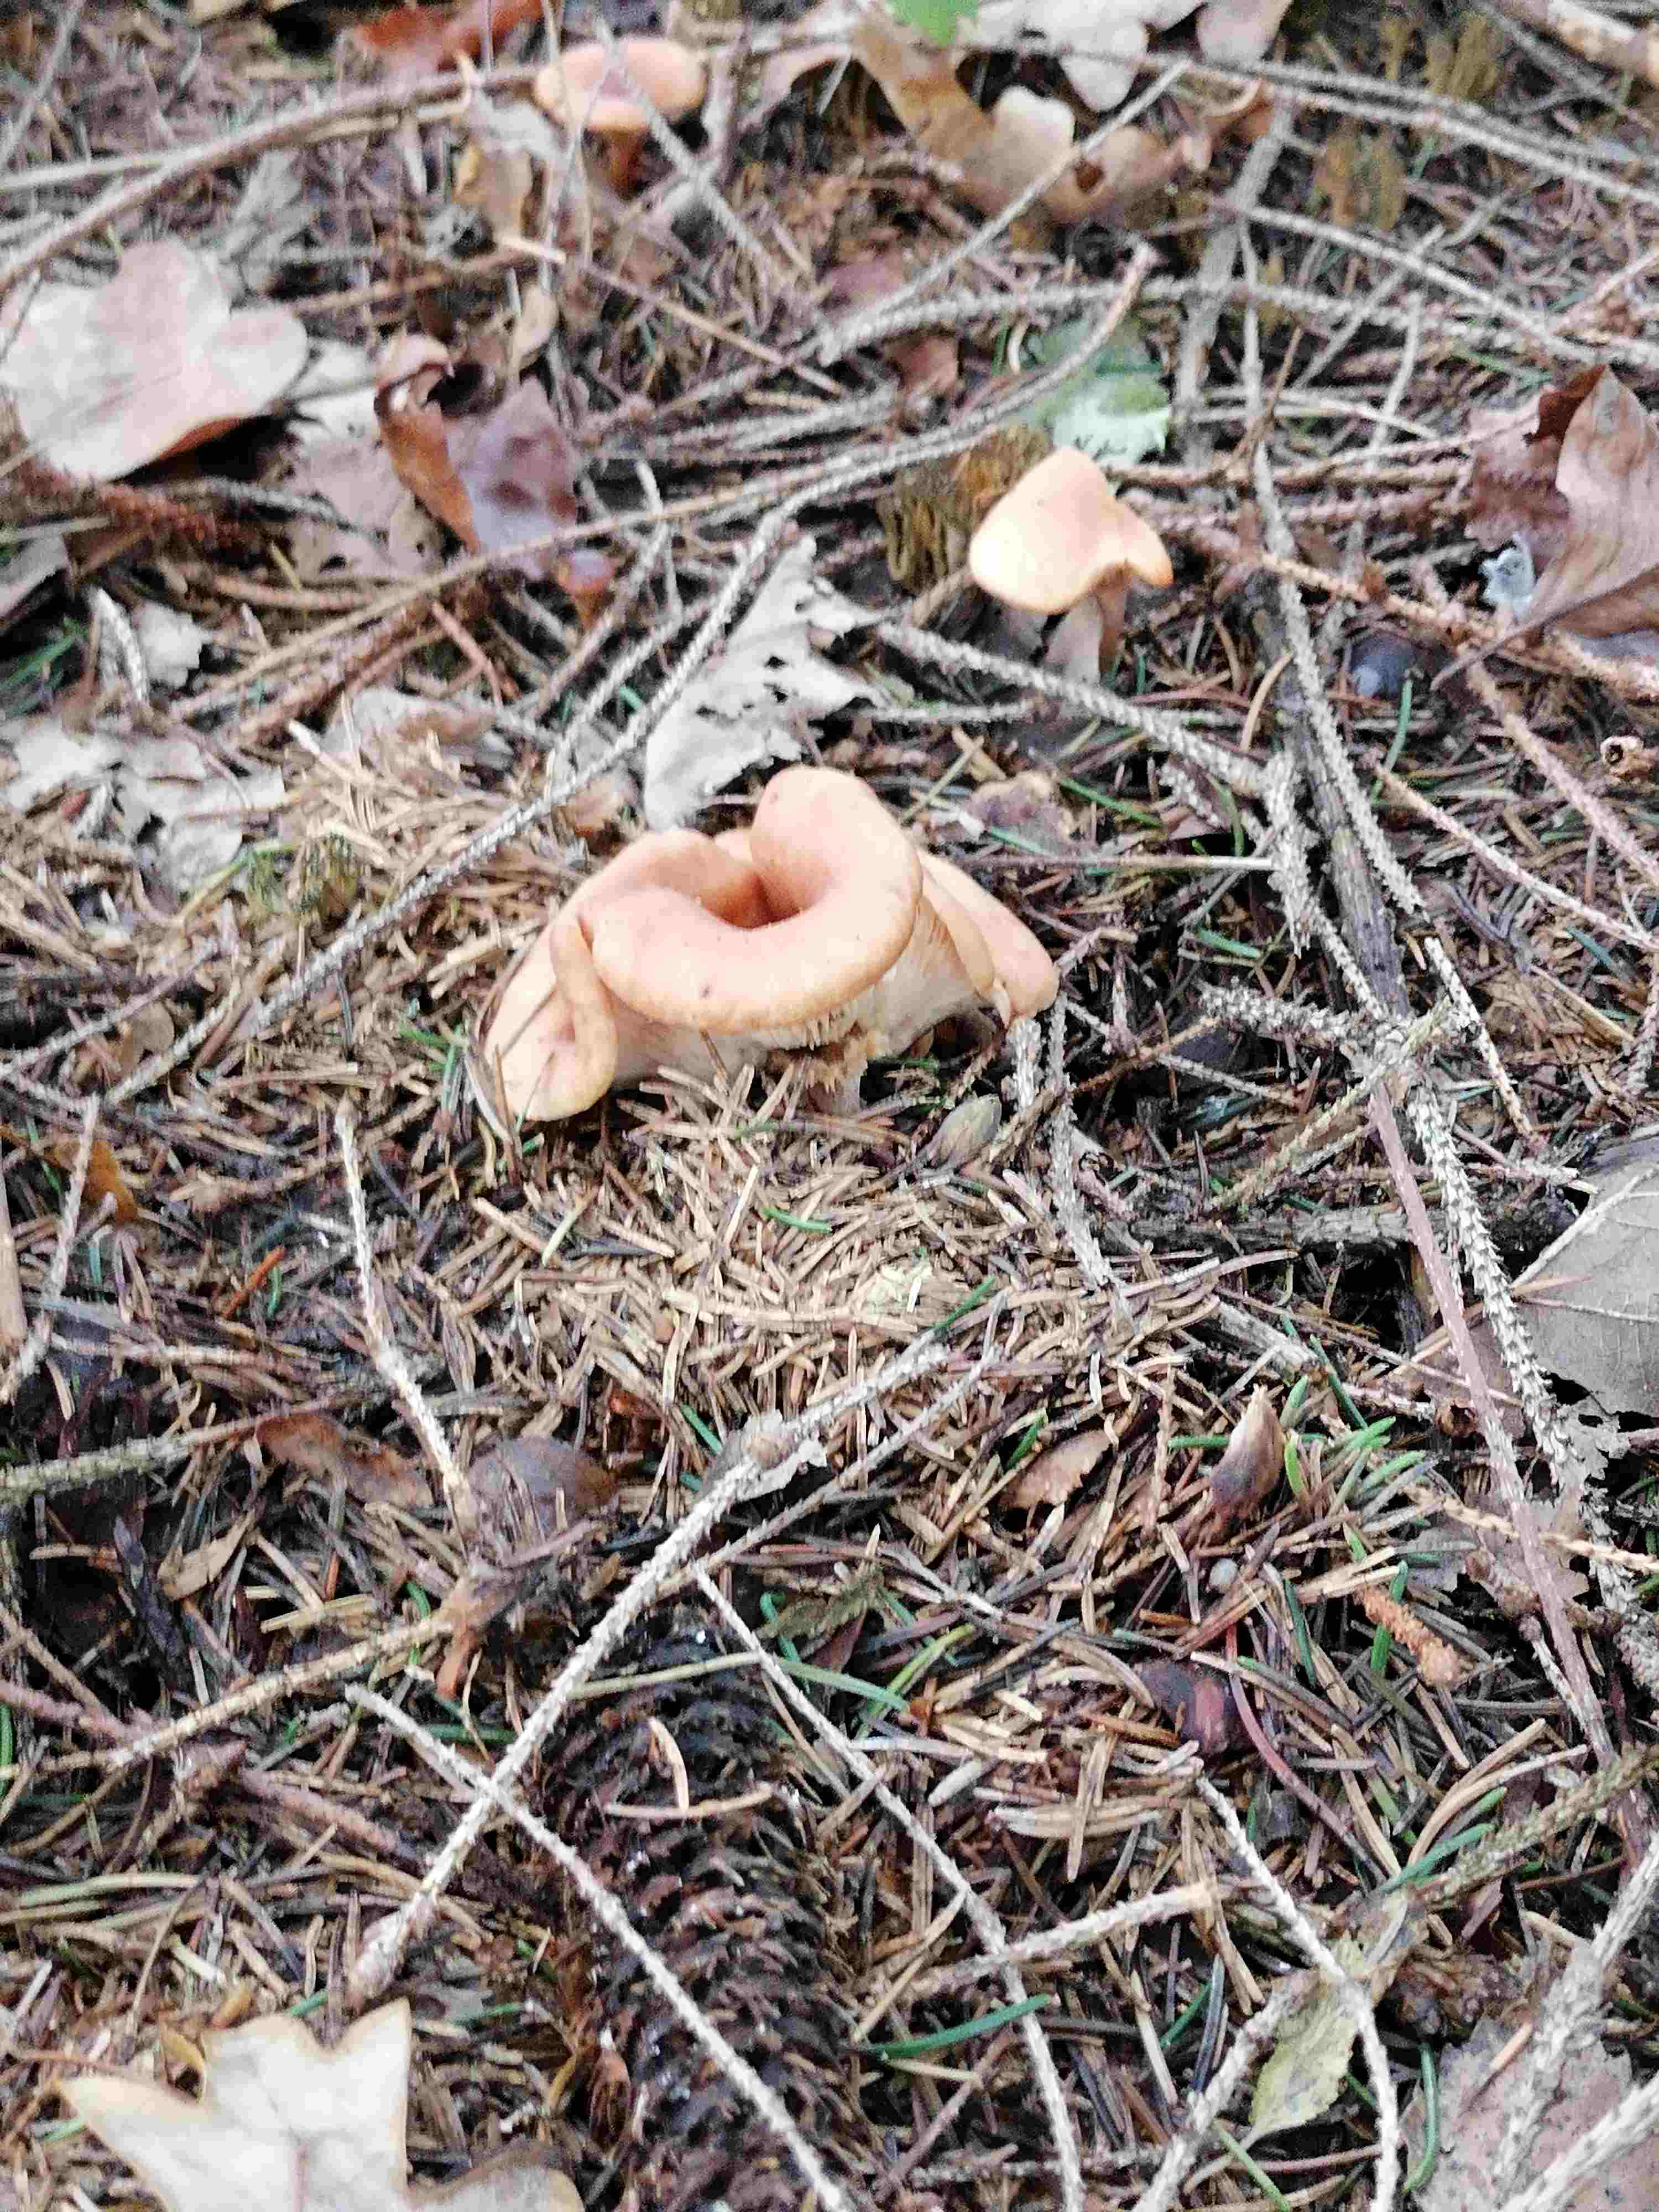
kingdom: Fungi
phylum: Basidiomycota
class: Agaricomycetes
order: Agaricales
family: Tricholomataceae
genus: Paralepista
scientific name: Paralepista flaccida
